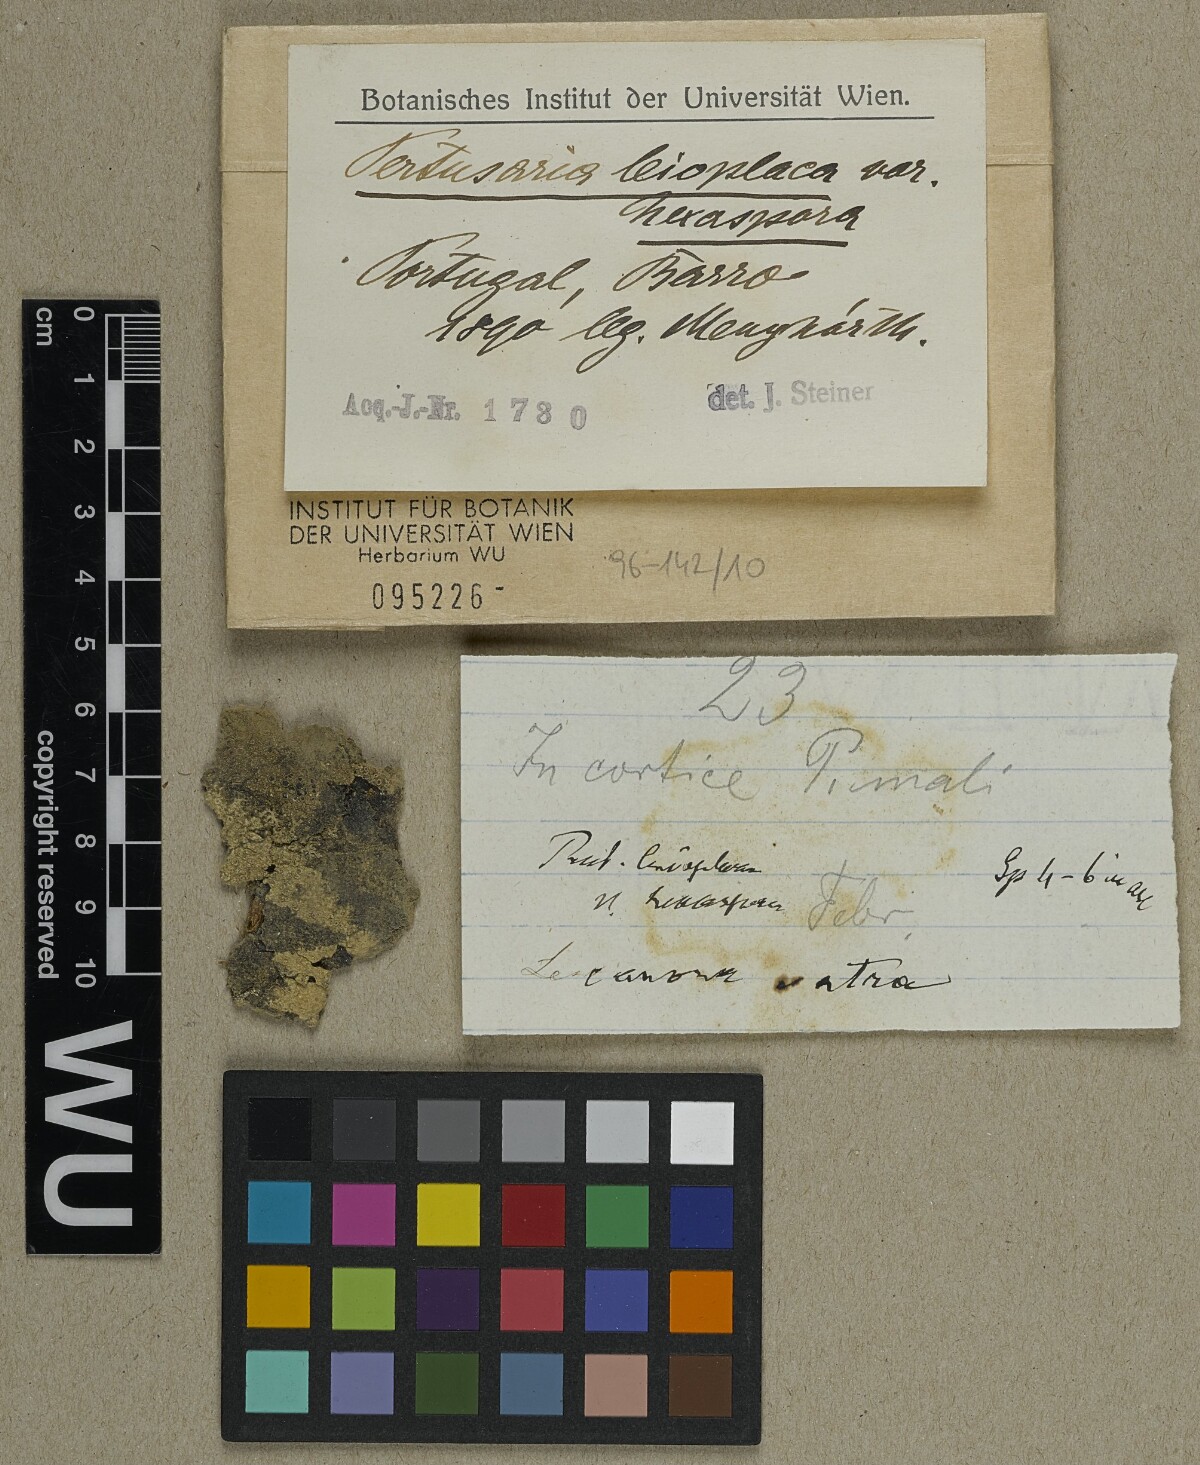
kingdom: Fungi
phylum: Ascomycota
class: Lecanoromycetes
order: Pertusariales
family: Pertusariaceae
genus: Pertusaria
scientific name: Pertusaria leioplaca
